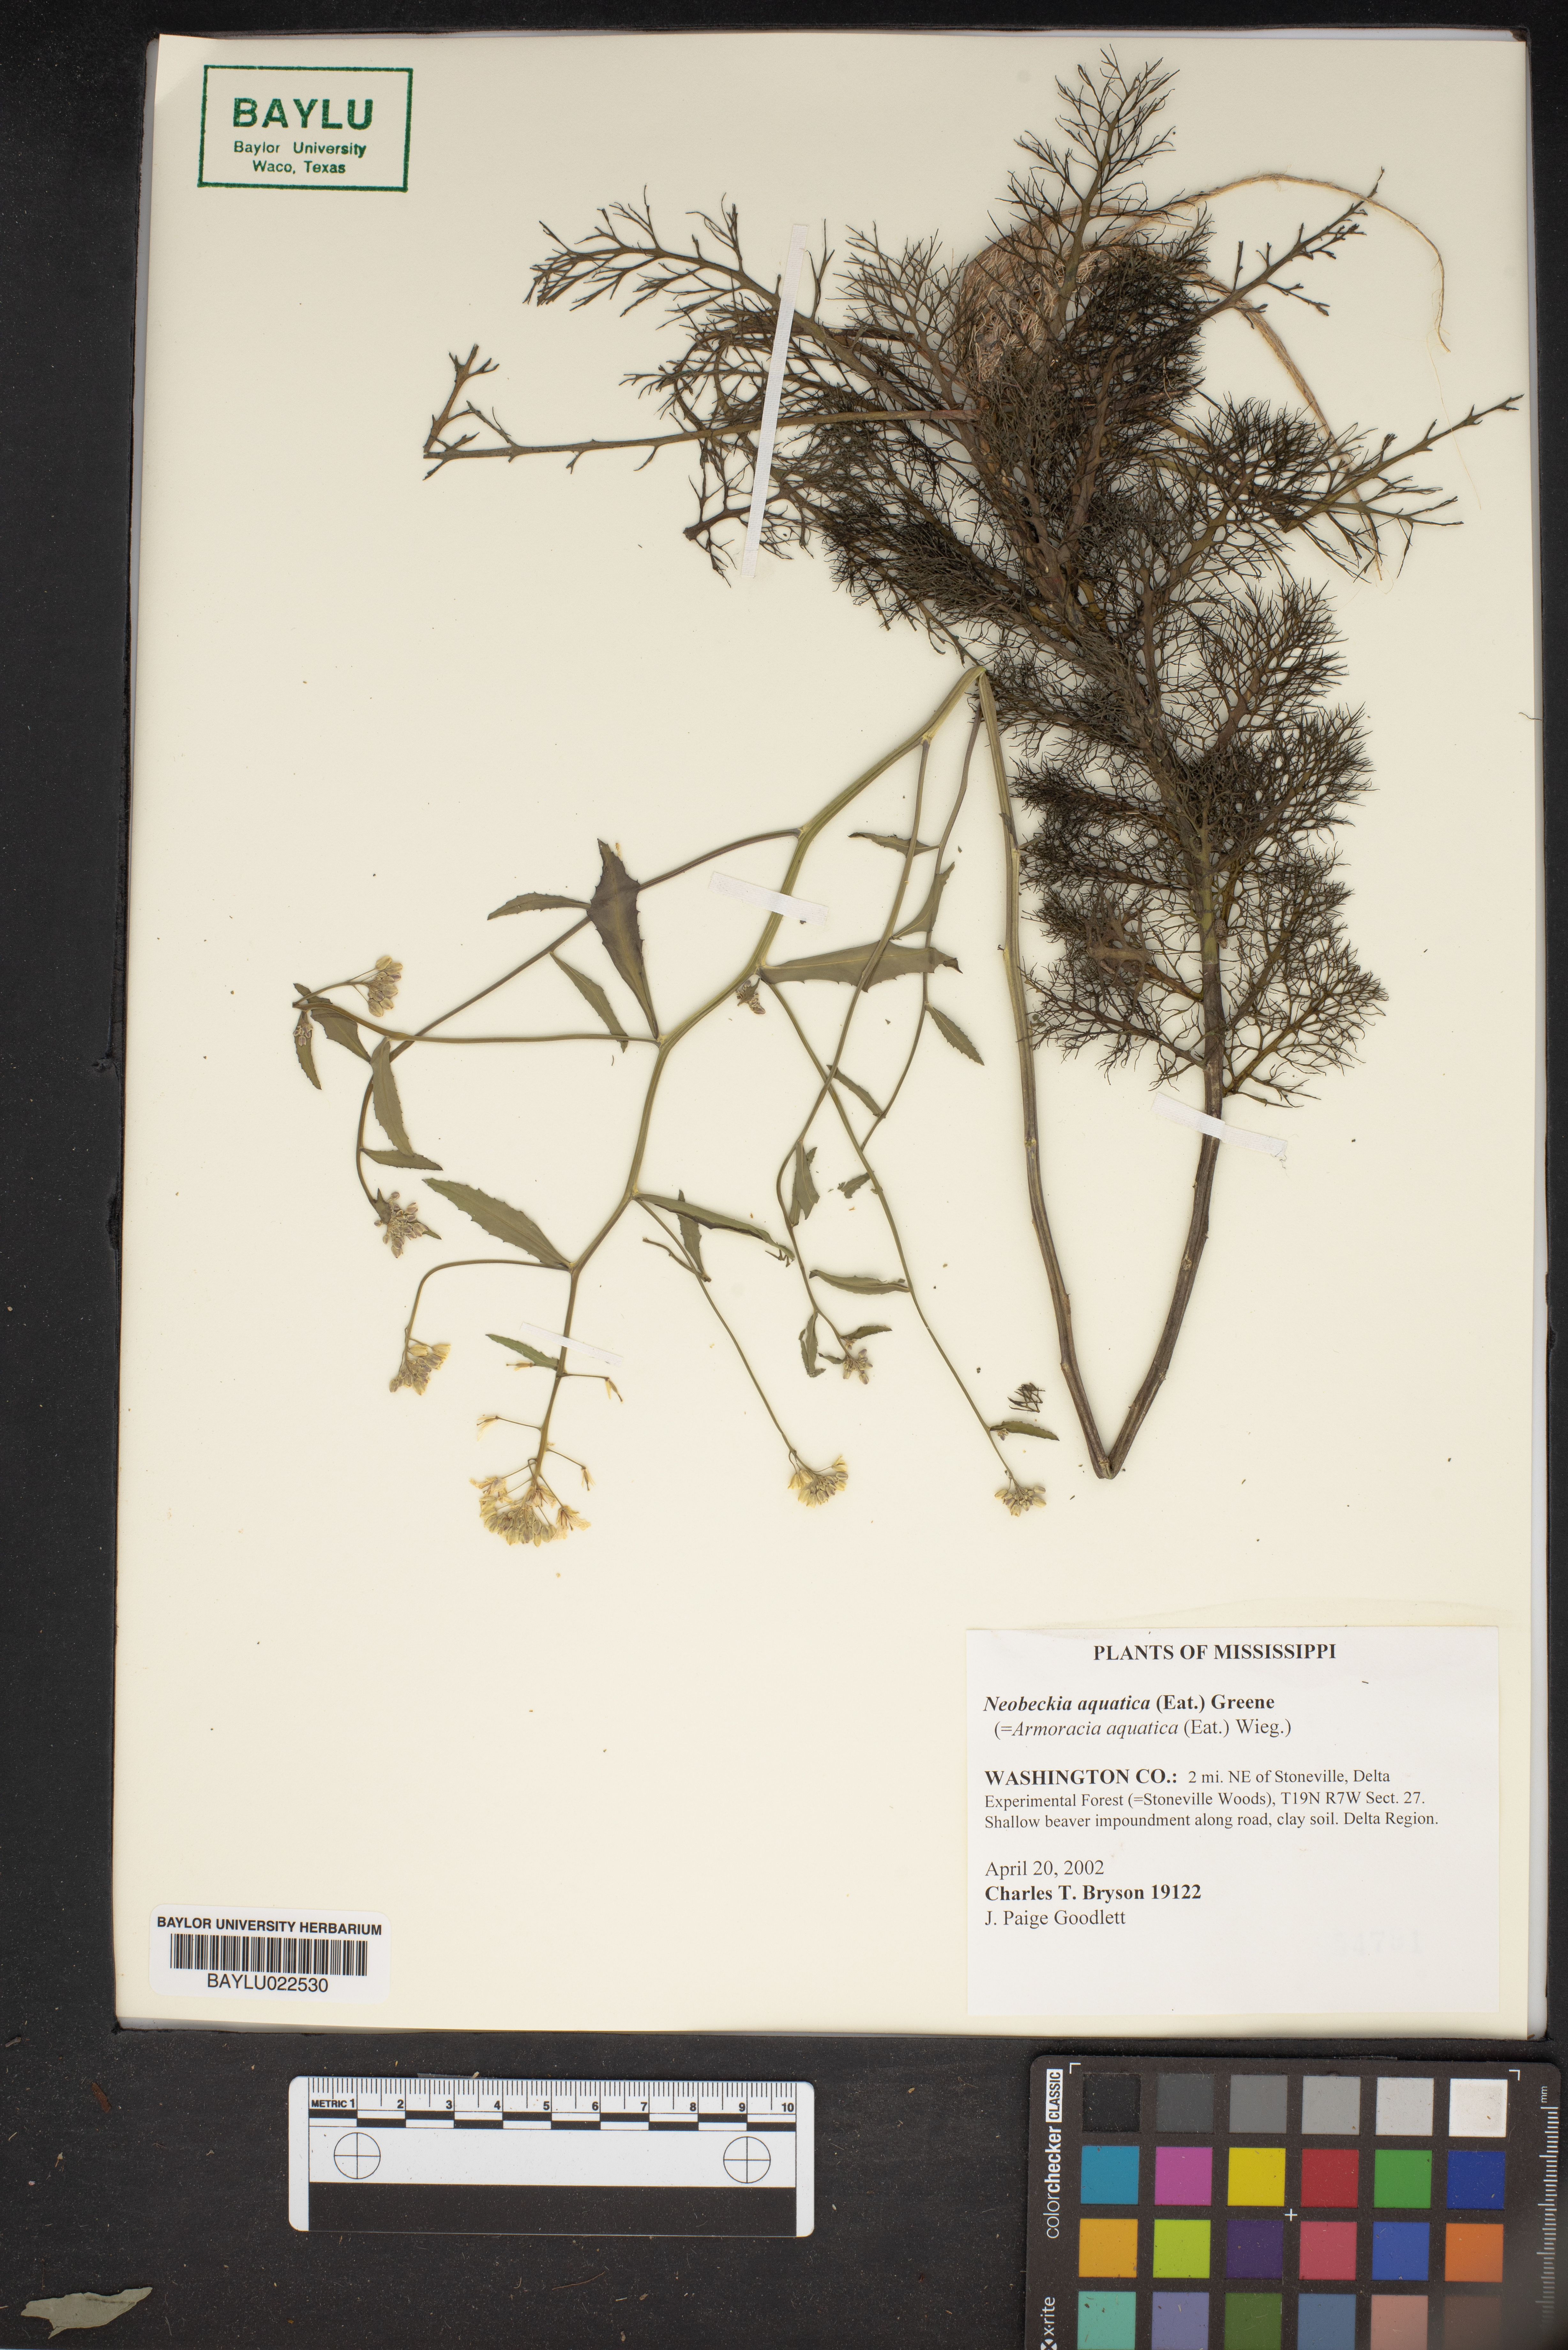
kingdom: Plantae
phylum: Tracheophyta
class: Magnoliopsida
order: Brassicales
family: Brassicaceae
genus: Rorippa
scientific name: Rorippa aquatica
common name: Lake watercress
